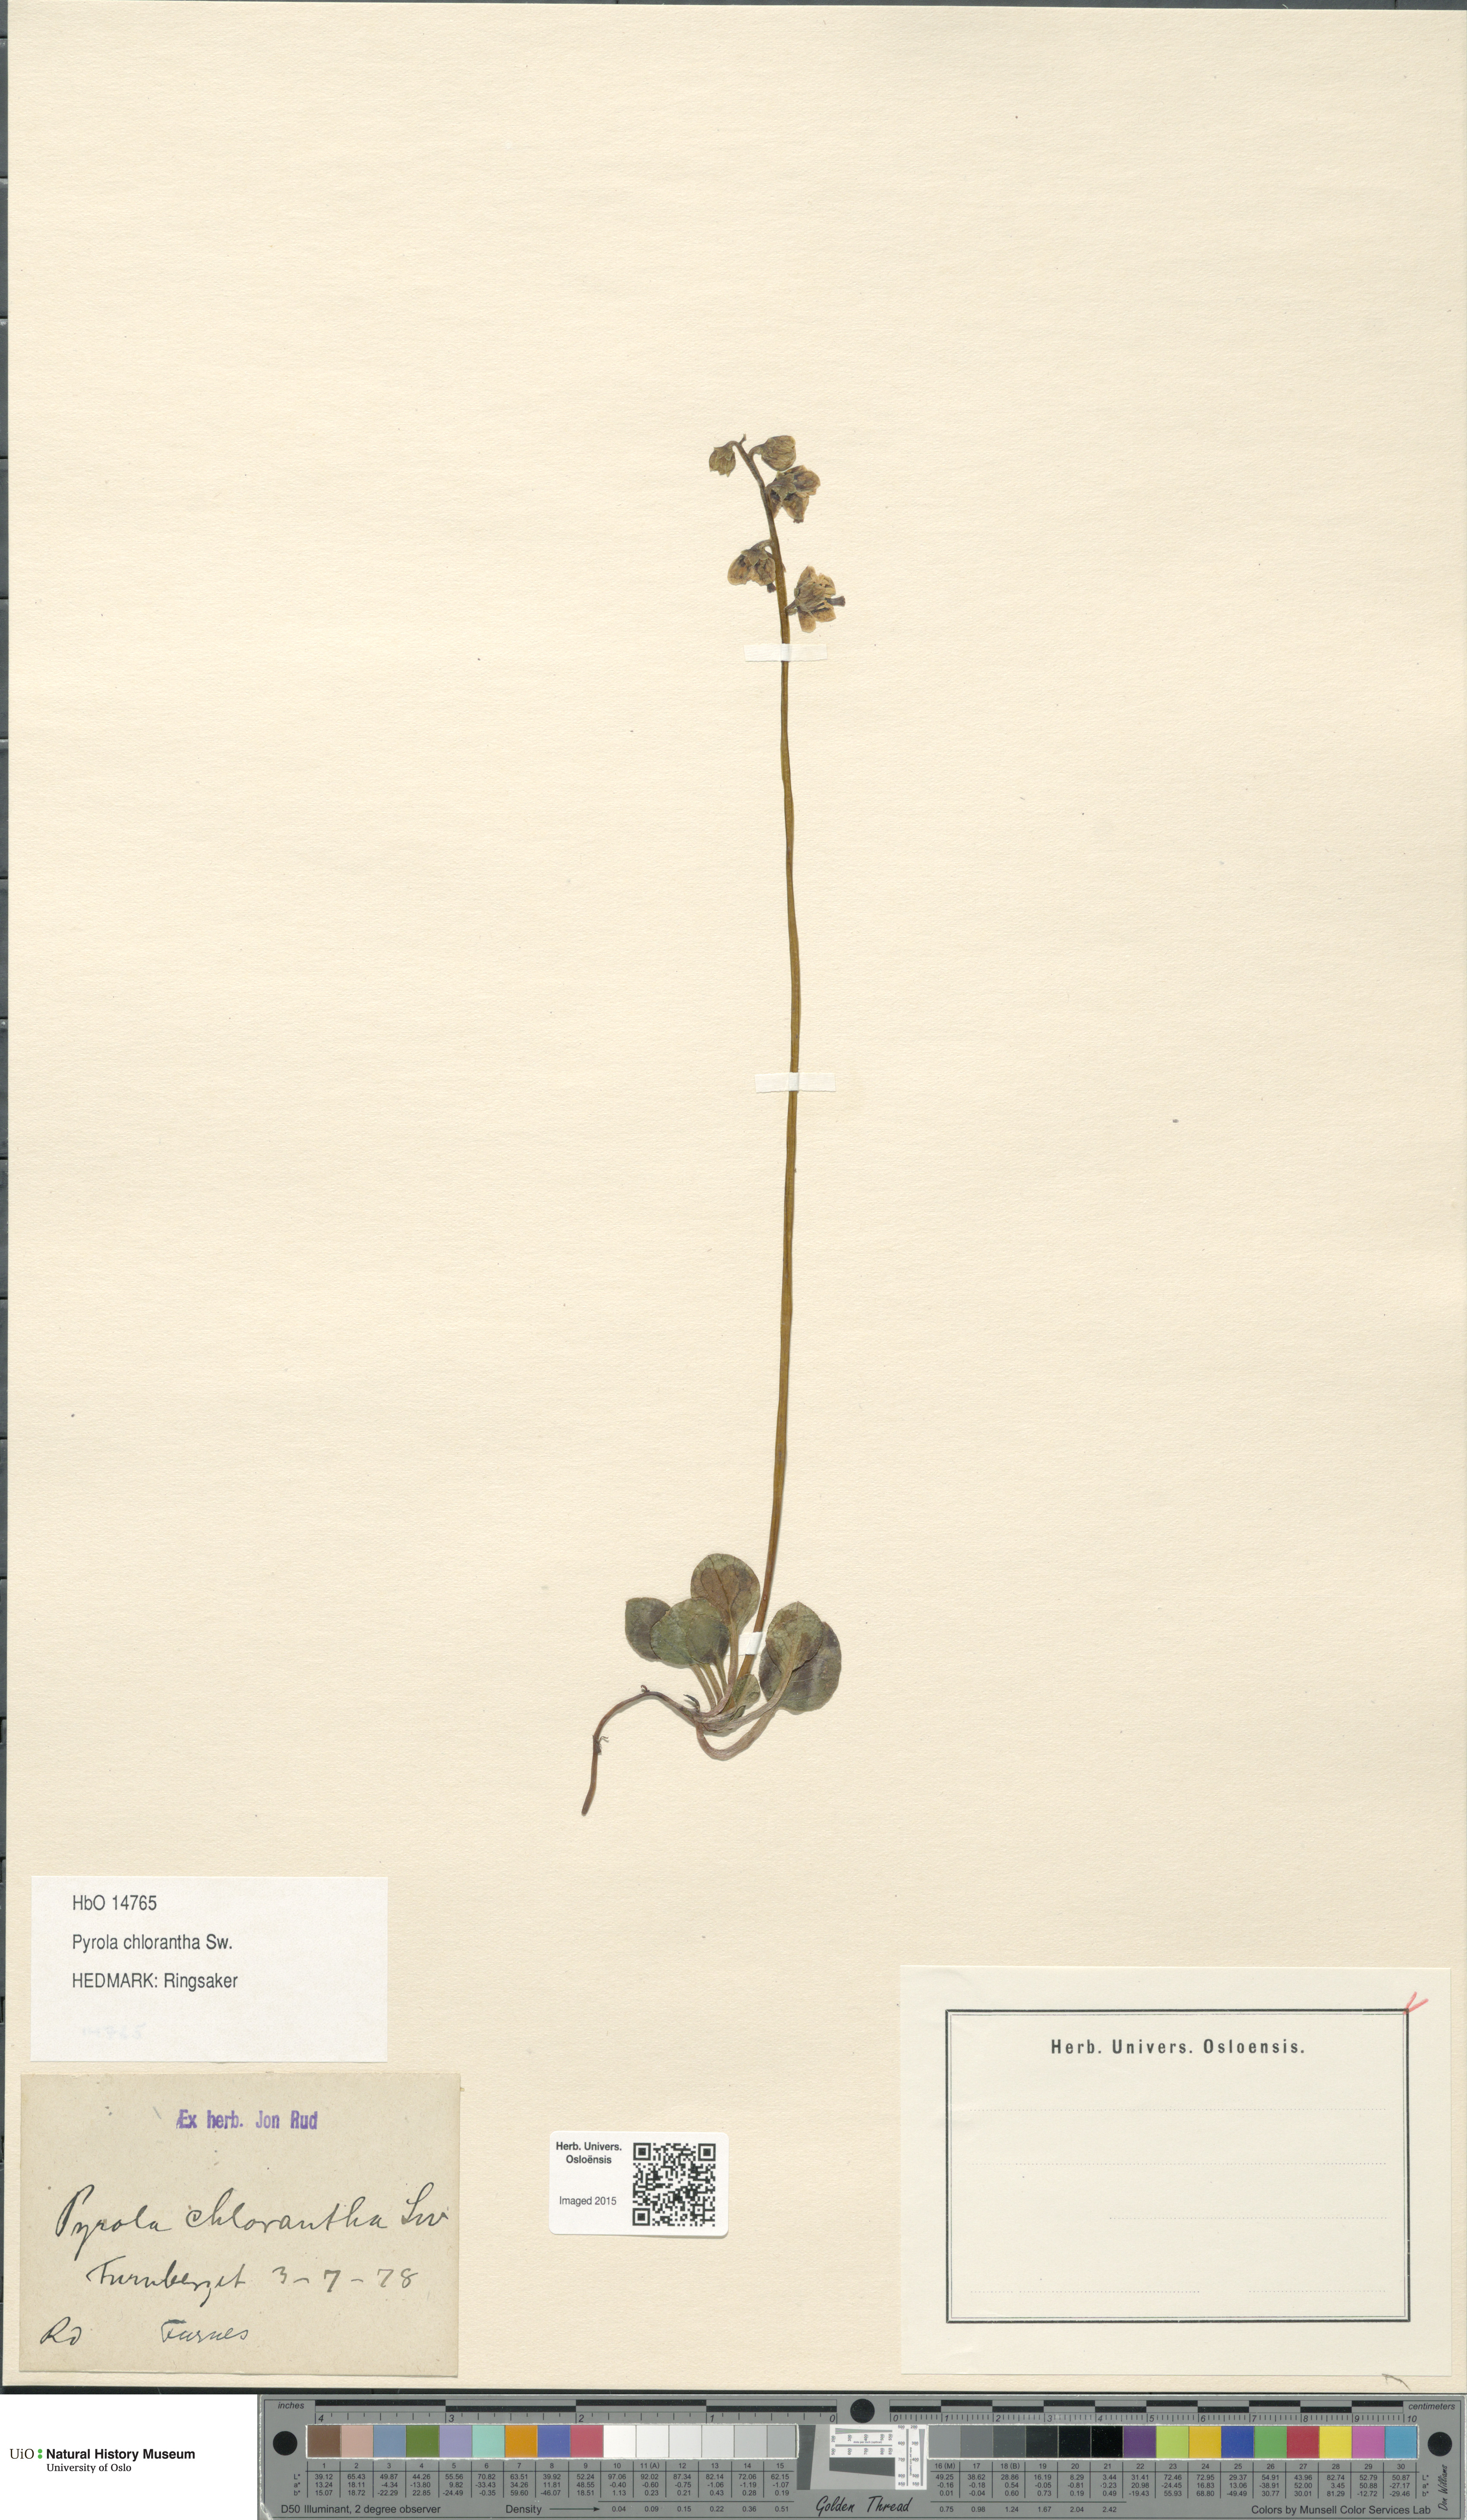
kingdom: Plantae
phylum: Tracheophyta
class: Magnoliopsida
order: Ericales
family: Ericaceae
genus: Pyrola
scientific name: Pyrola chlorantha
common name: Green wintergreen
